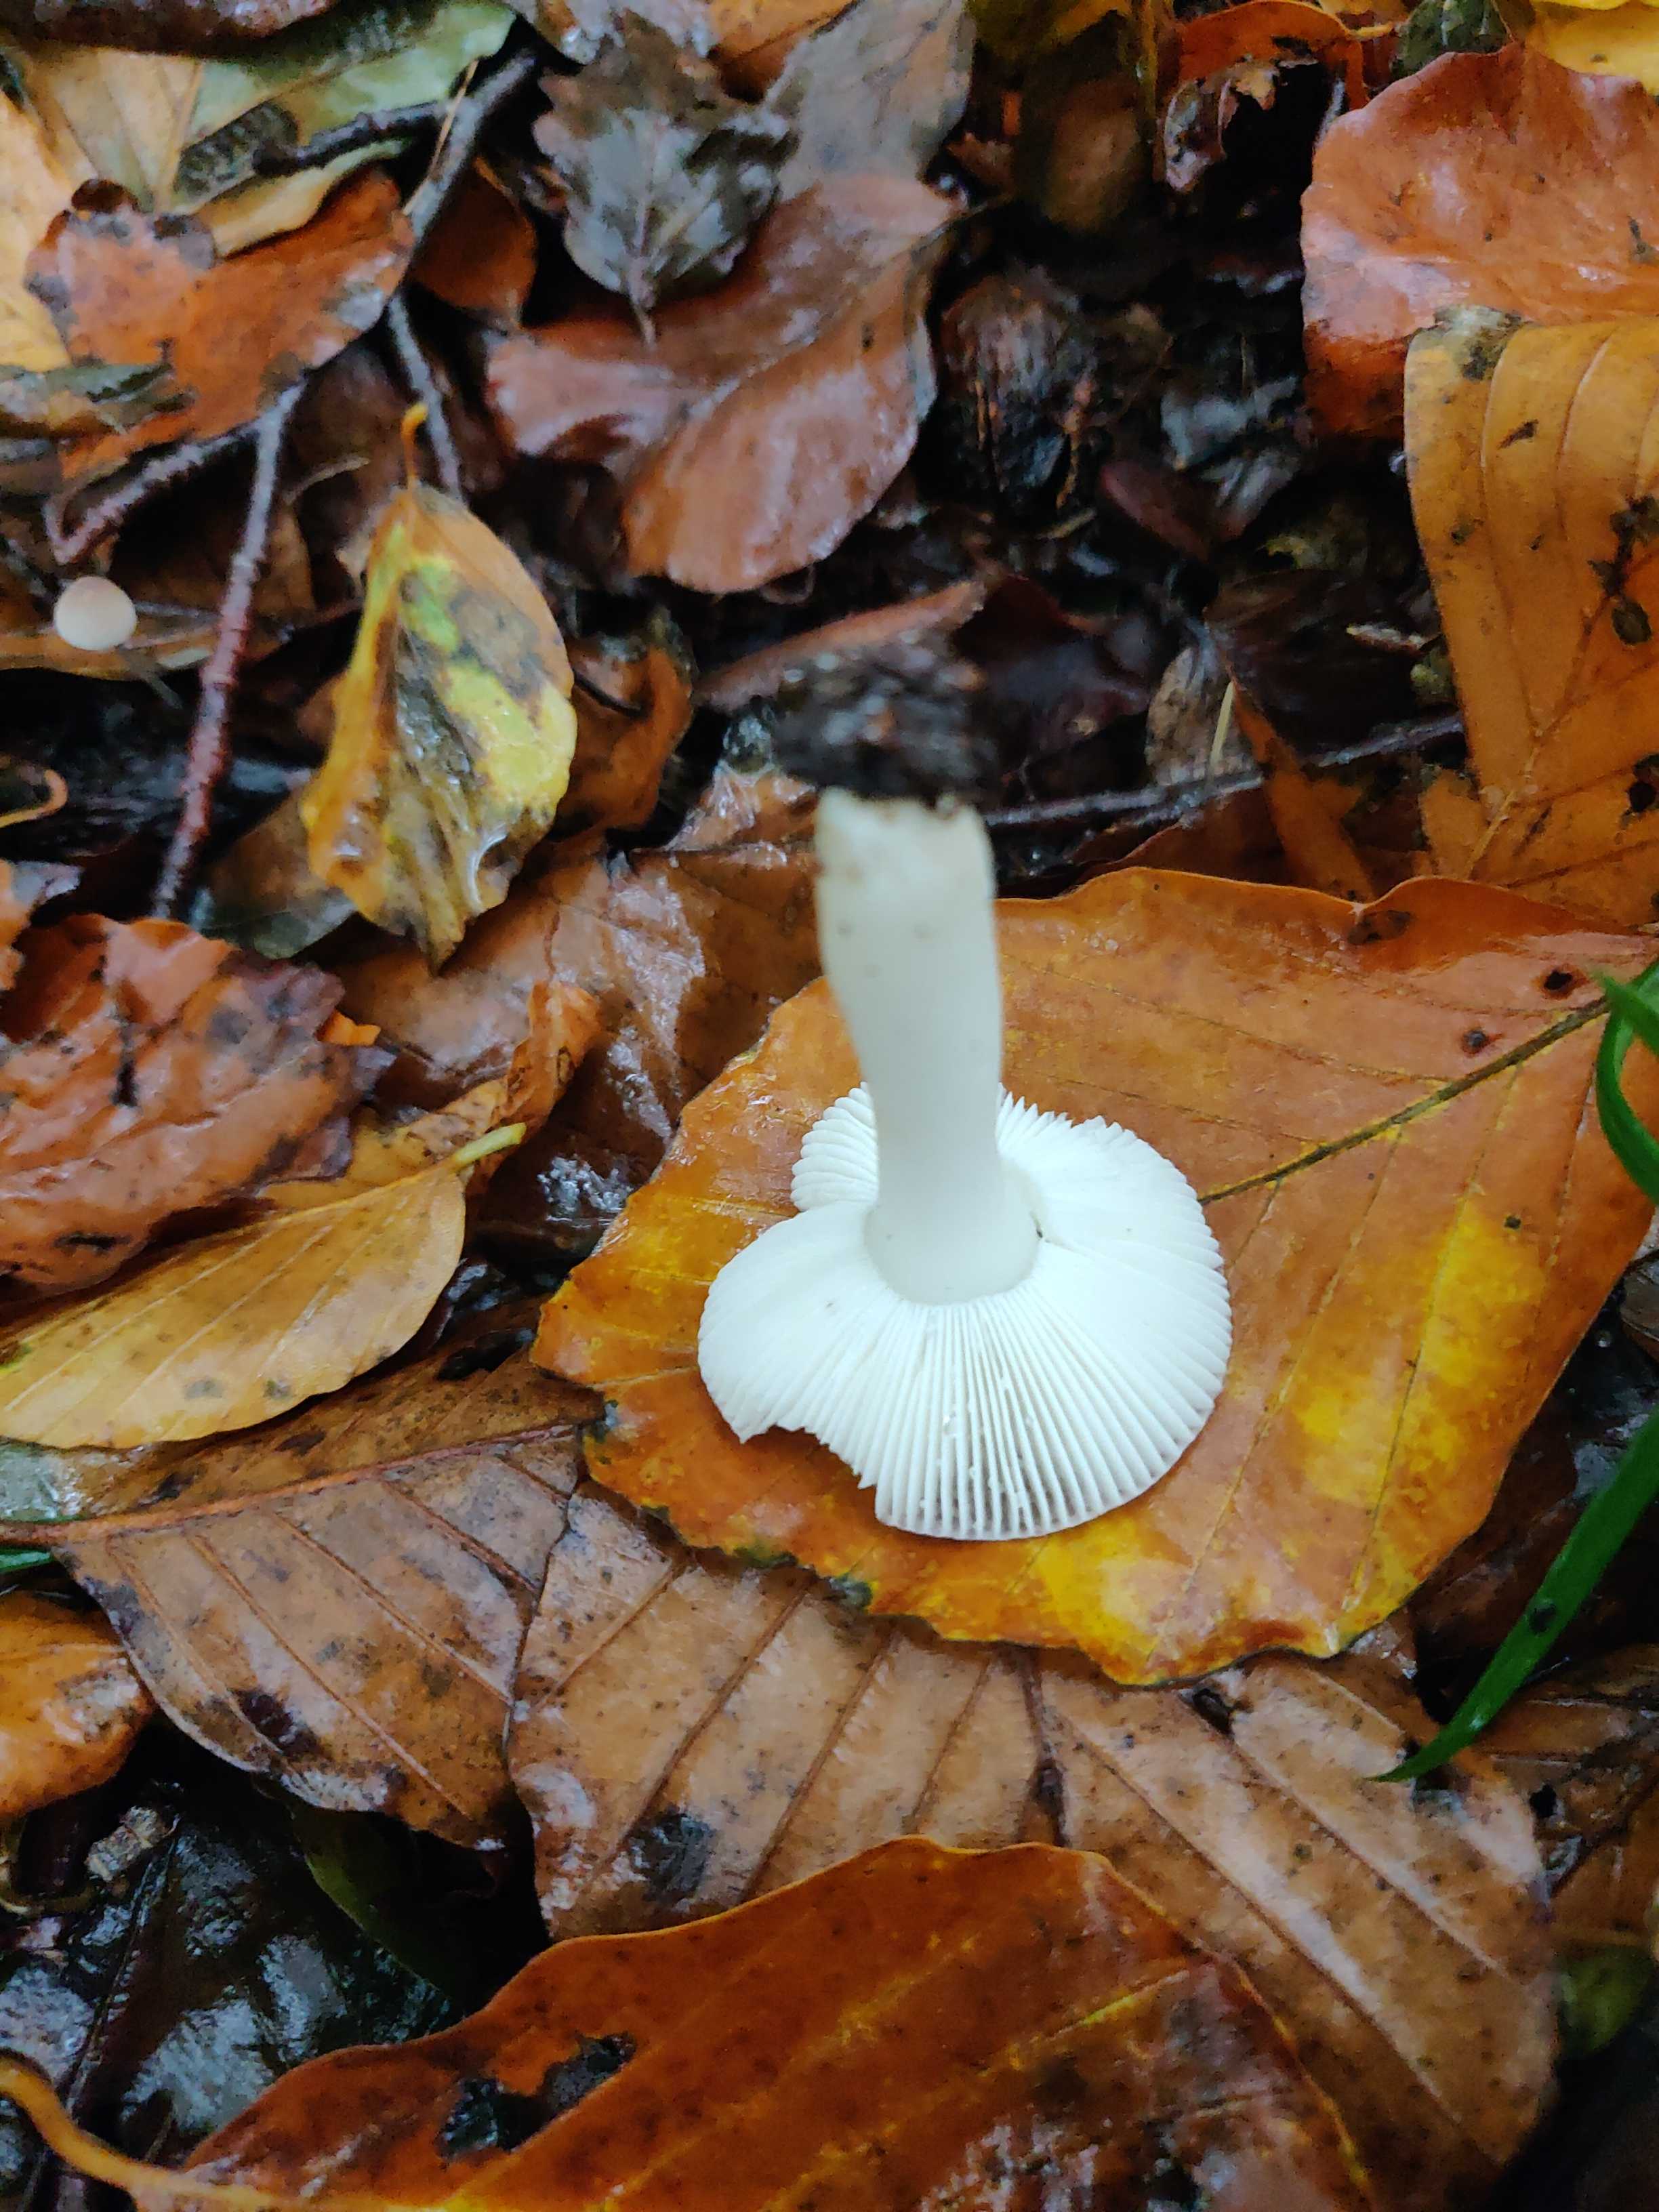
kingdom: Fungi
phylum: Basidiomycota
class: Agaricomycetes
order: Russulales
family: Russulaceae
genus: Russula
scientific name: Russula
